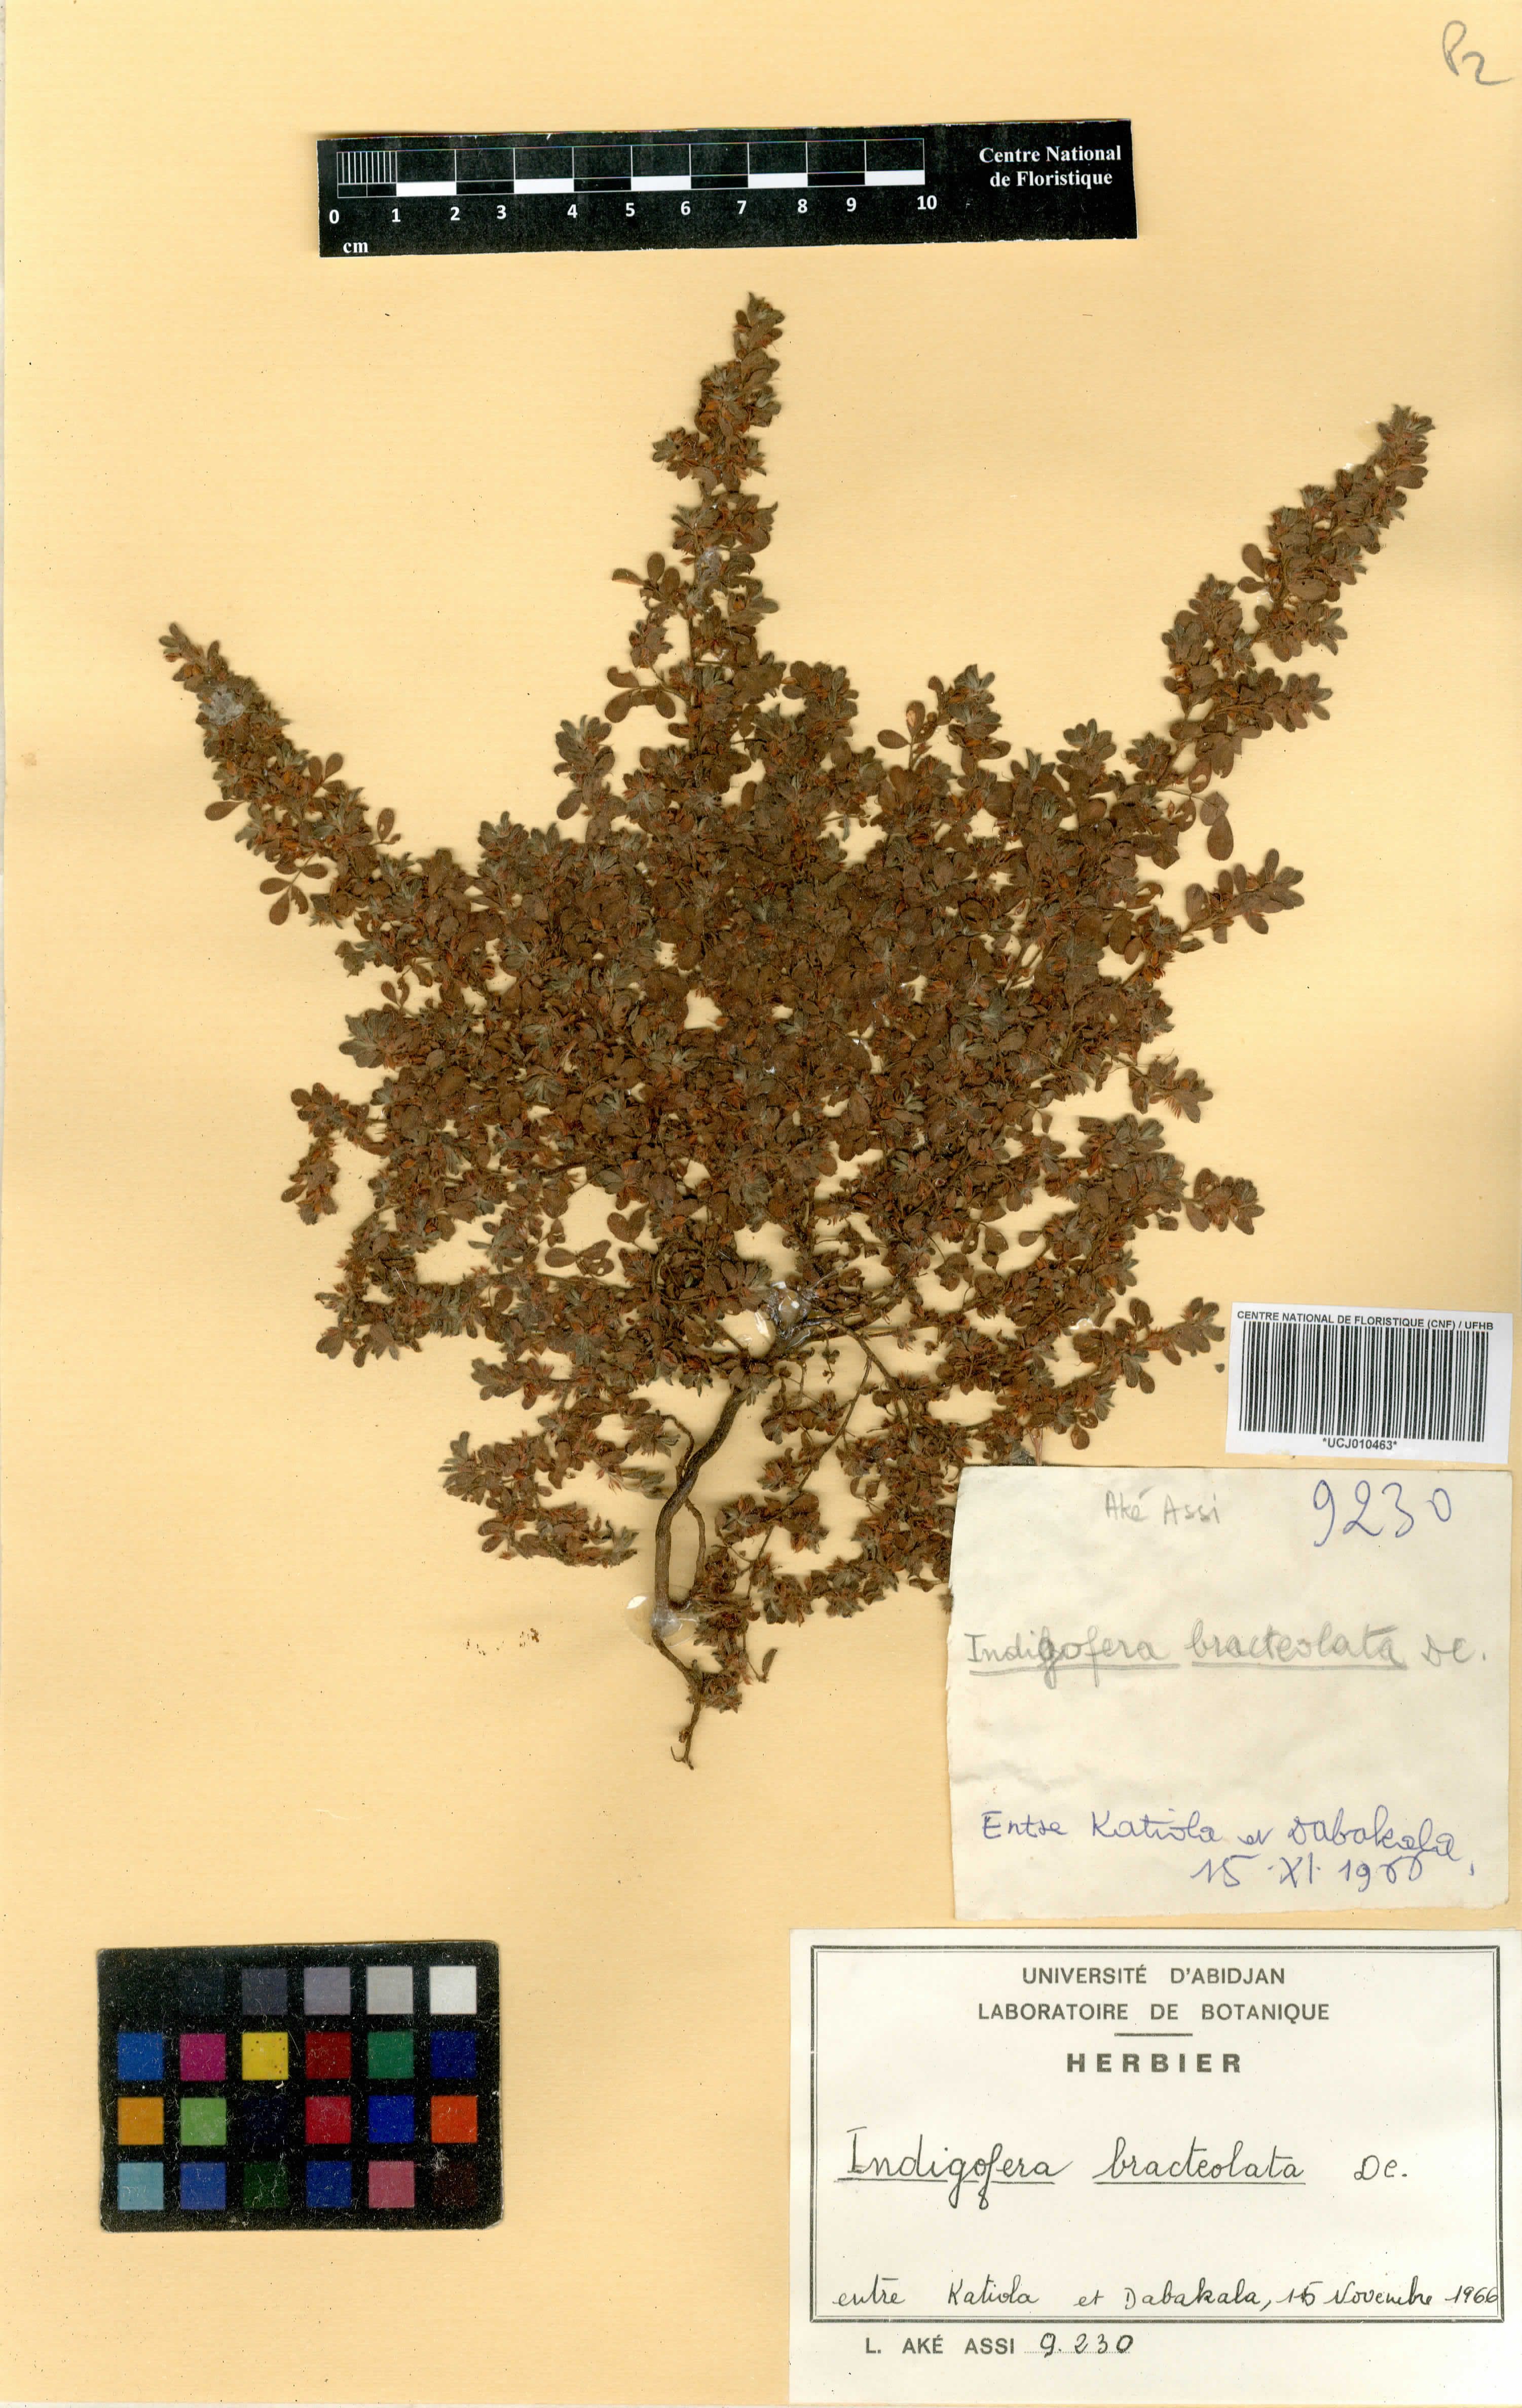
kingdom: Plantae
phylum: Tracheophyta
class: Magnoliopsida
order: Fabales
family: Fabaceae
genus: Indigofera
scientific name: Indigofera bracteolata
